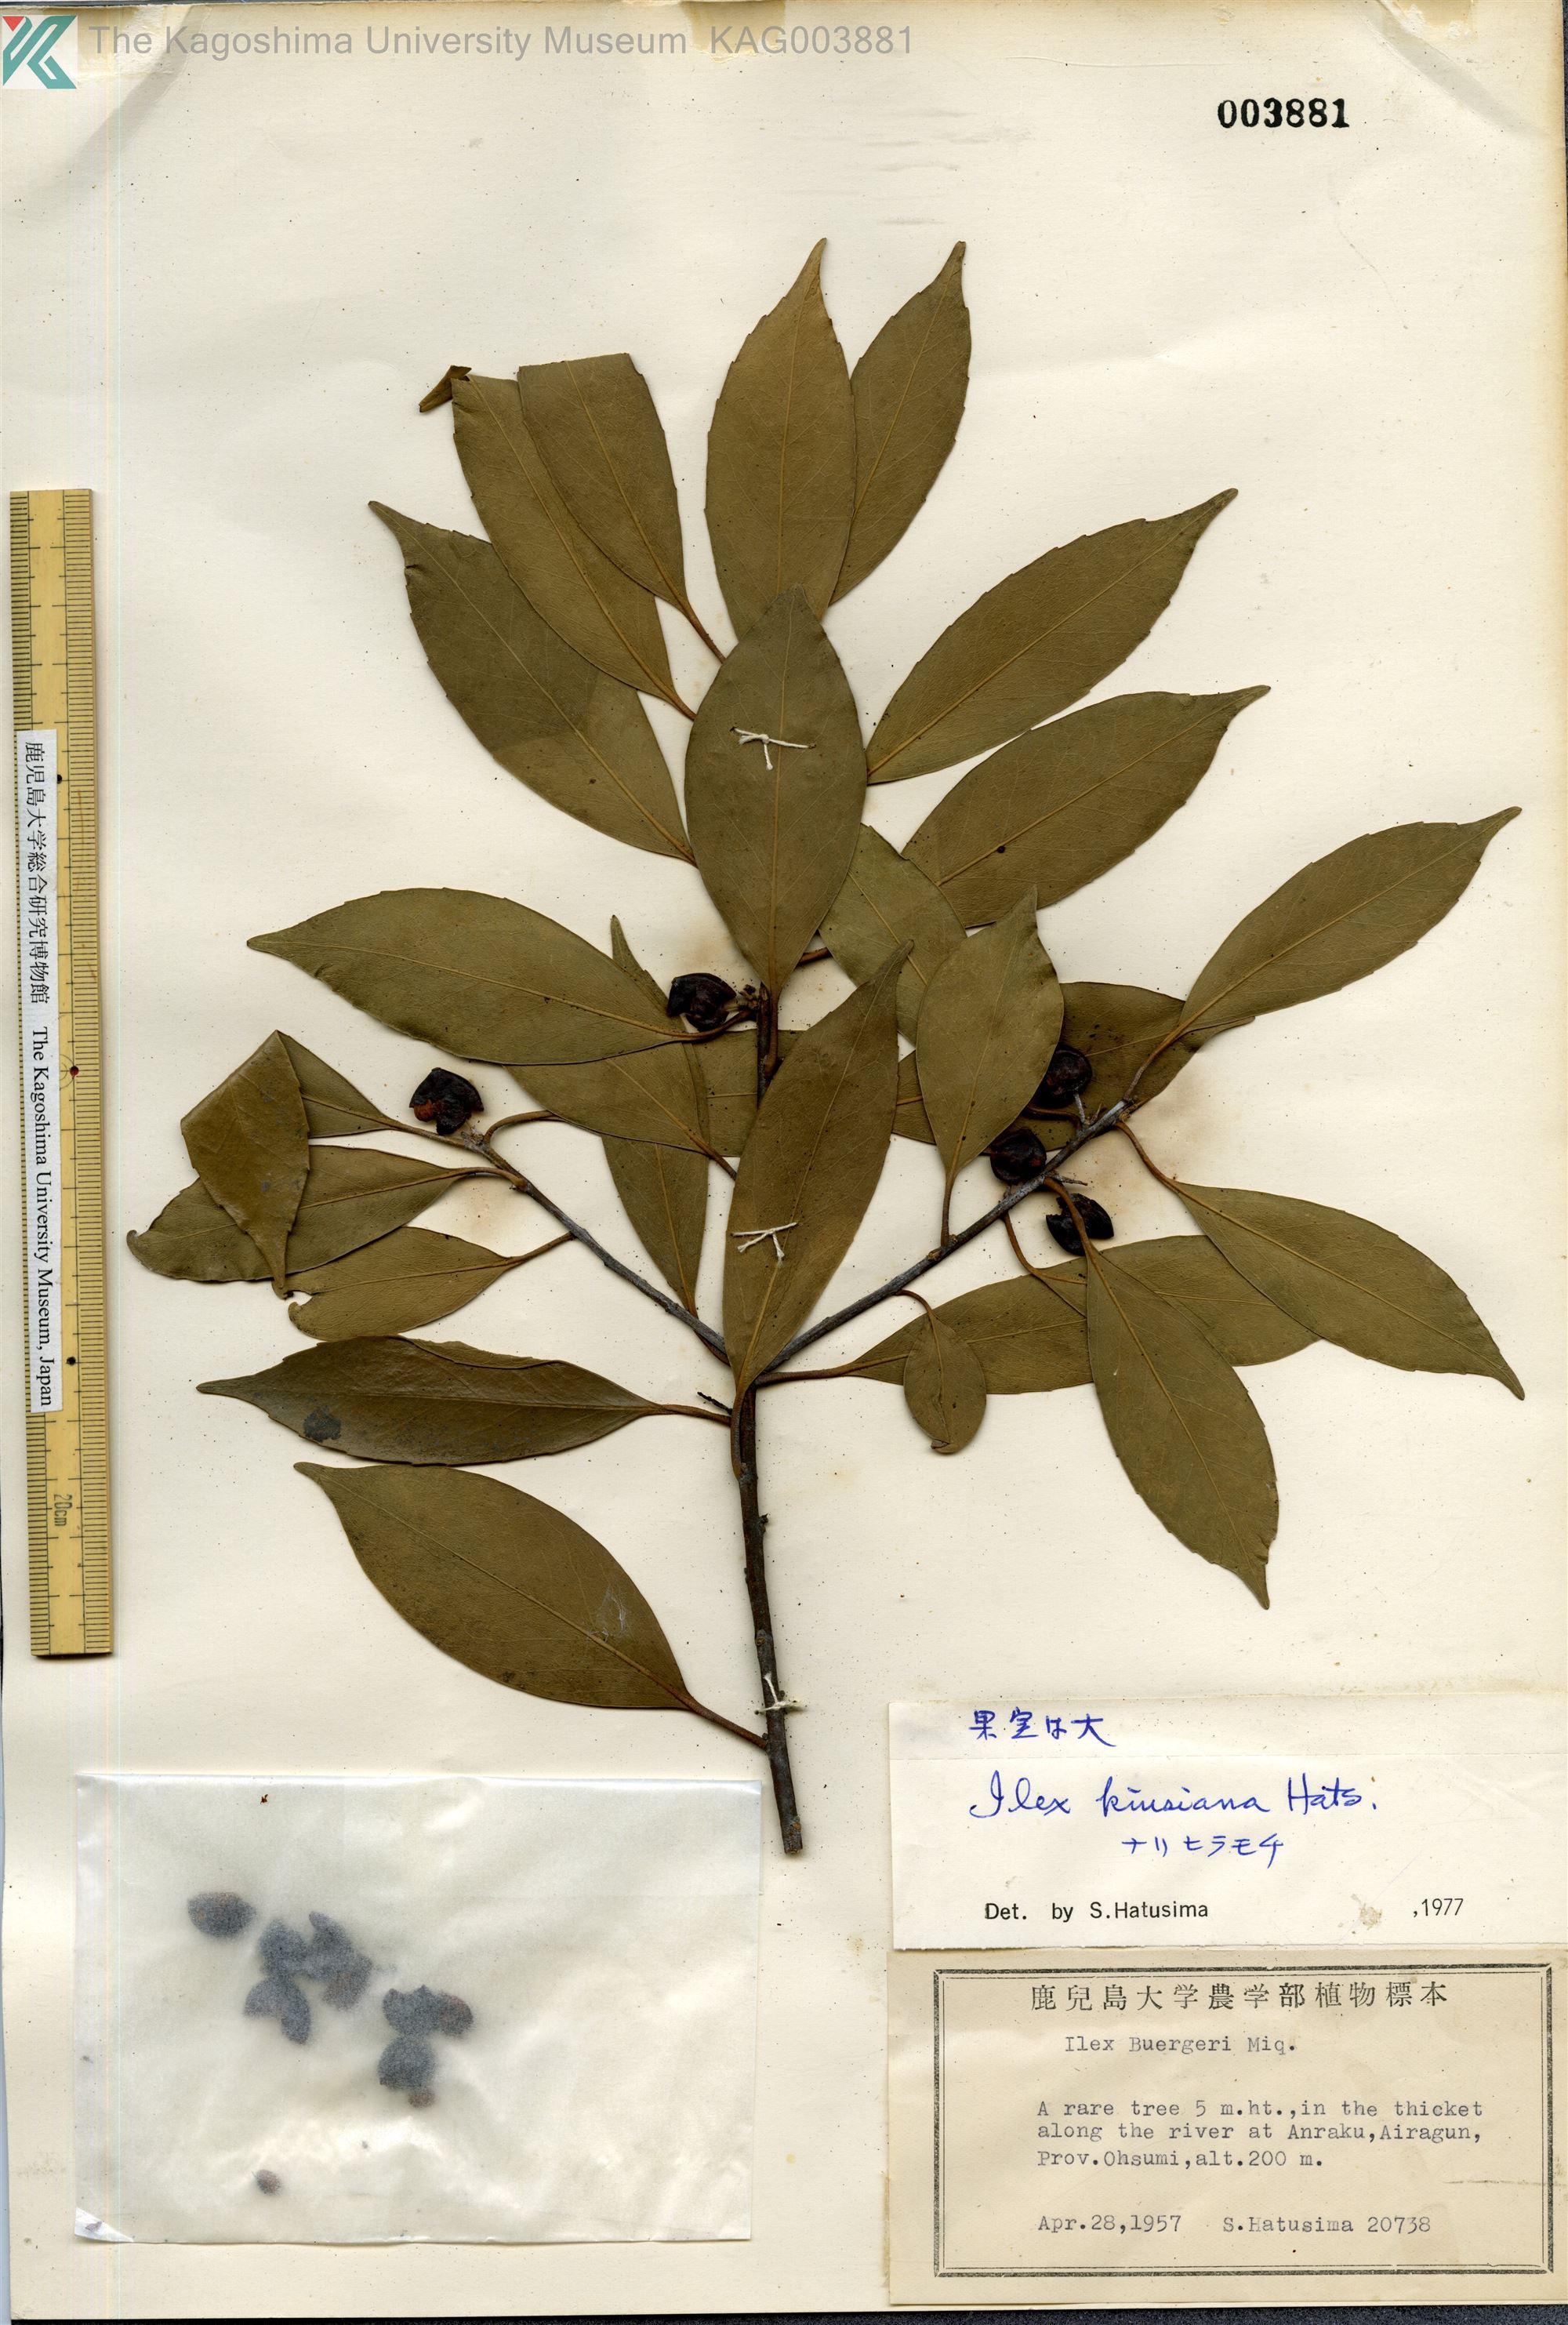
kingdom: Plantae
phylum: Tracheophyta
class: Magnoliopsida
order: Aquifoliales
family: Aquifoliaceae
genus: Ilex
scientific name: Ilex kiusiana
